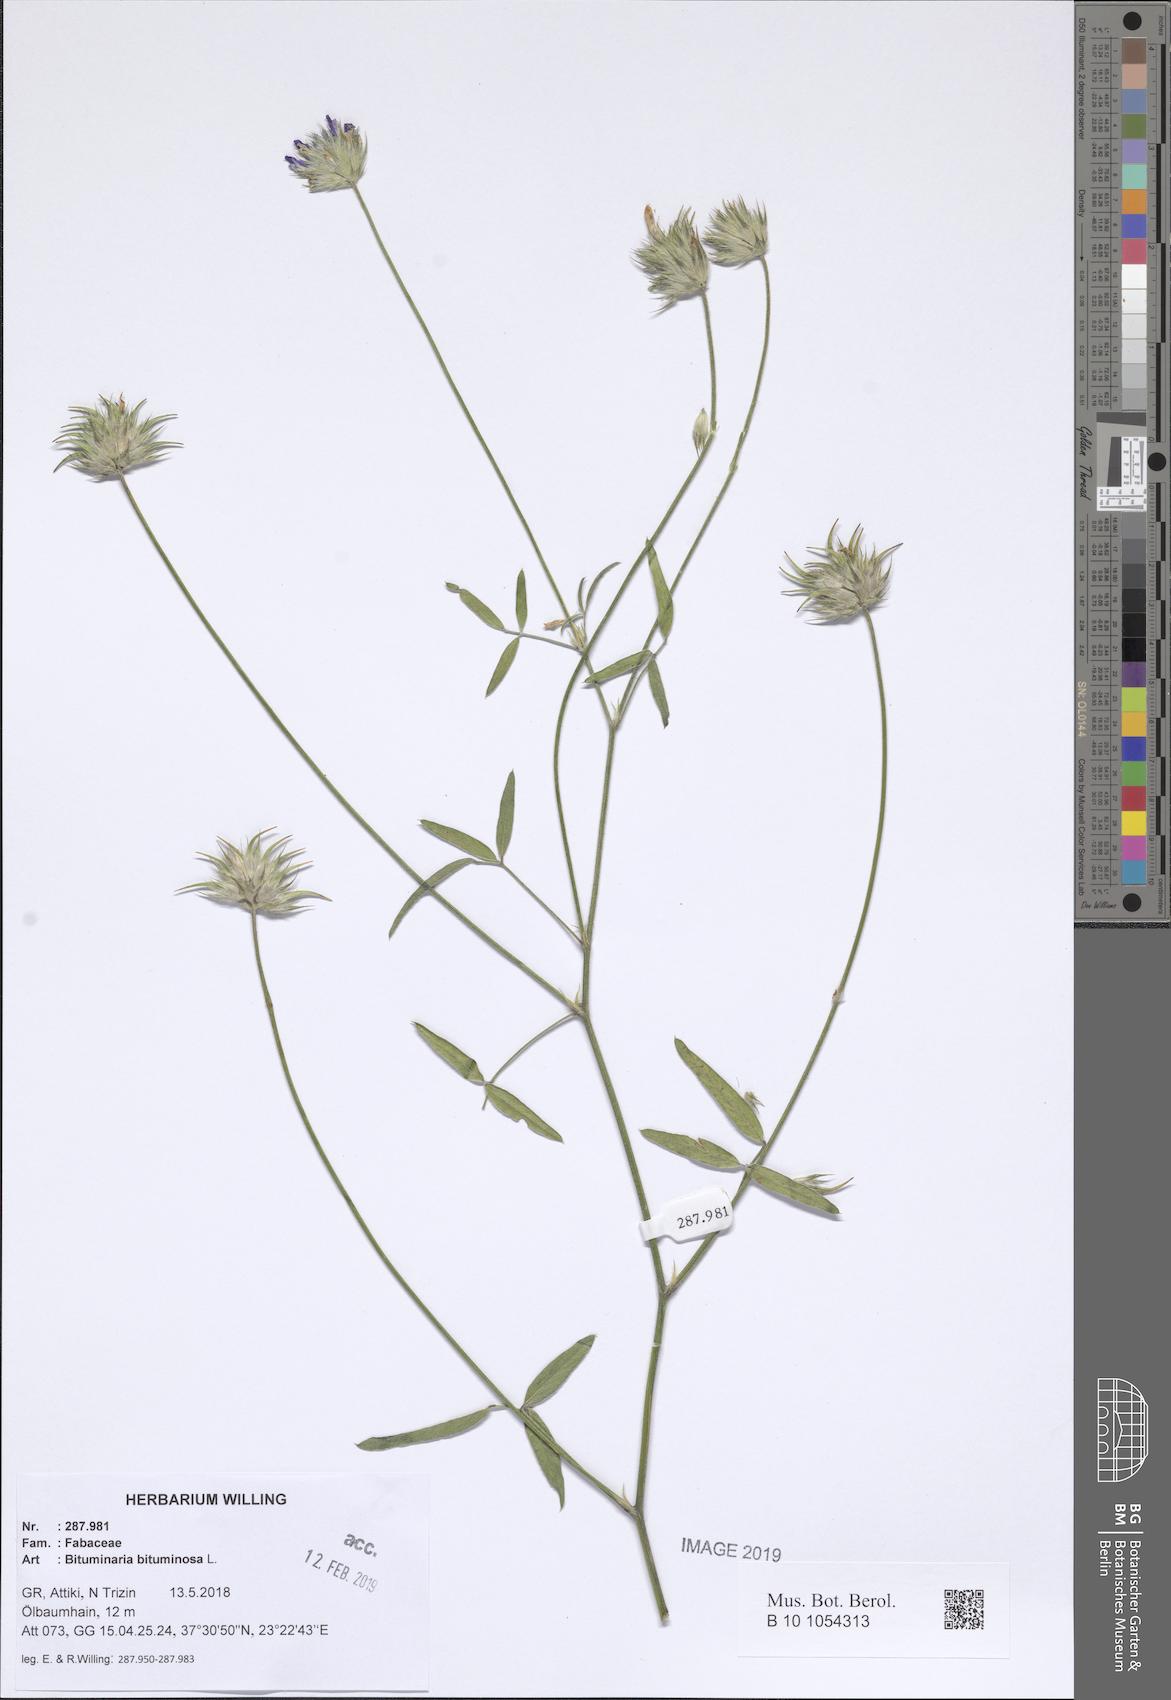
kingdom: Plantae
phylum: Tracheophyta
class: Magnoliopsida
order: Fabales
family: Fabaceae
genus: Bituminaria
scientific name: Bituminaria bituminosa
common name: Arabian pea
